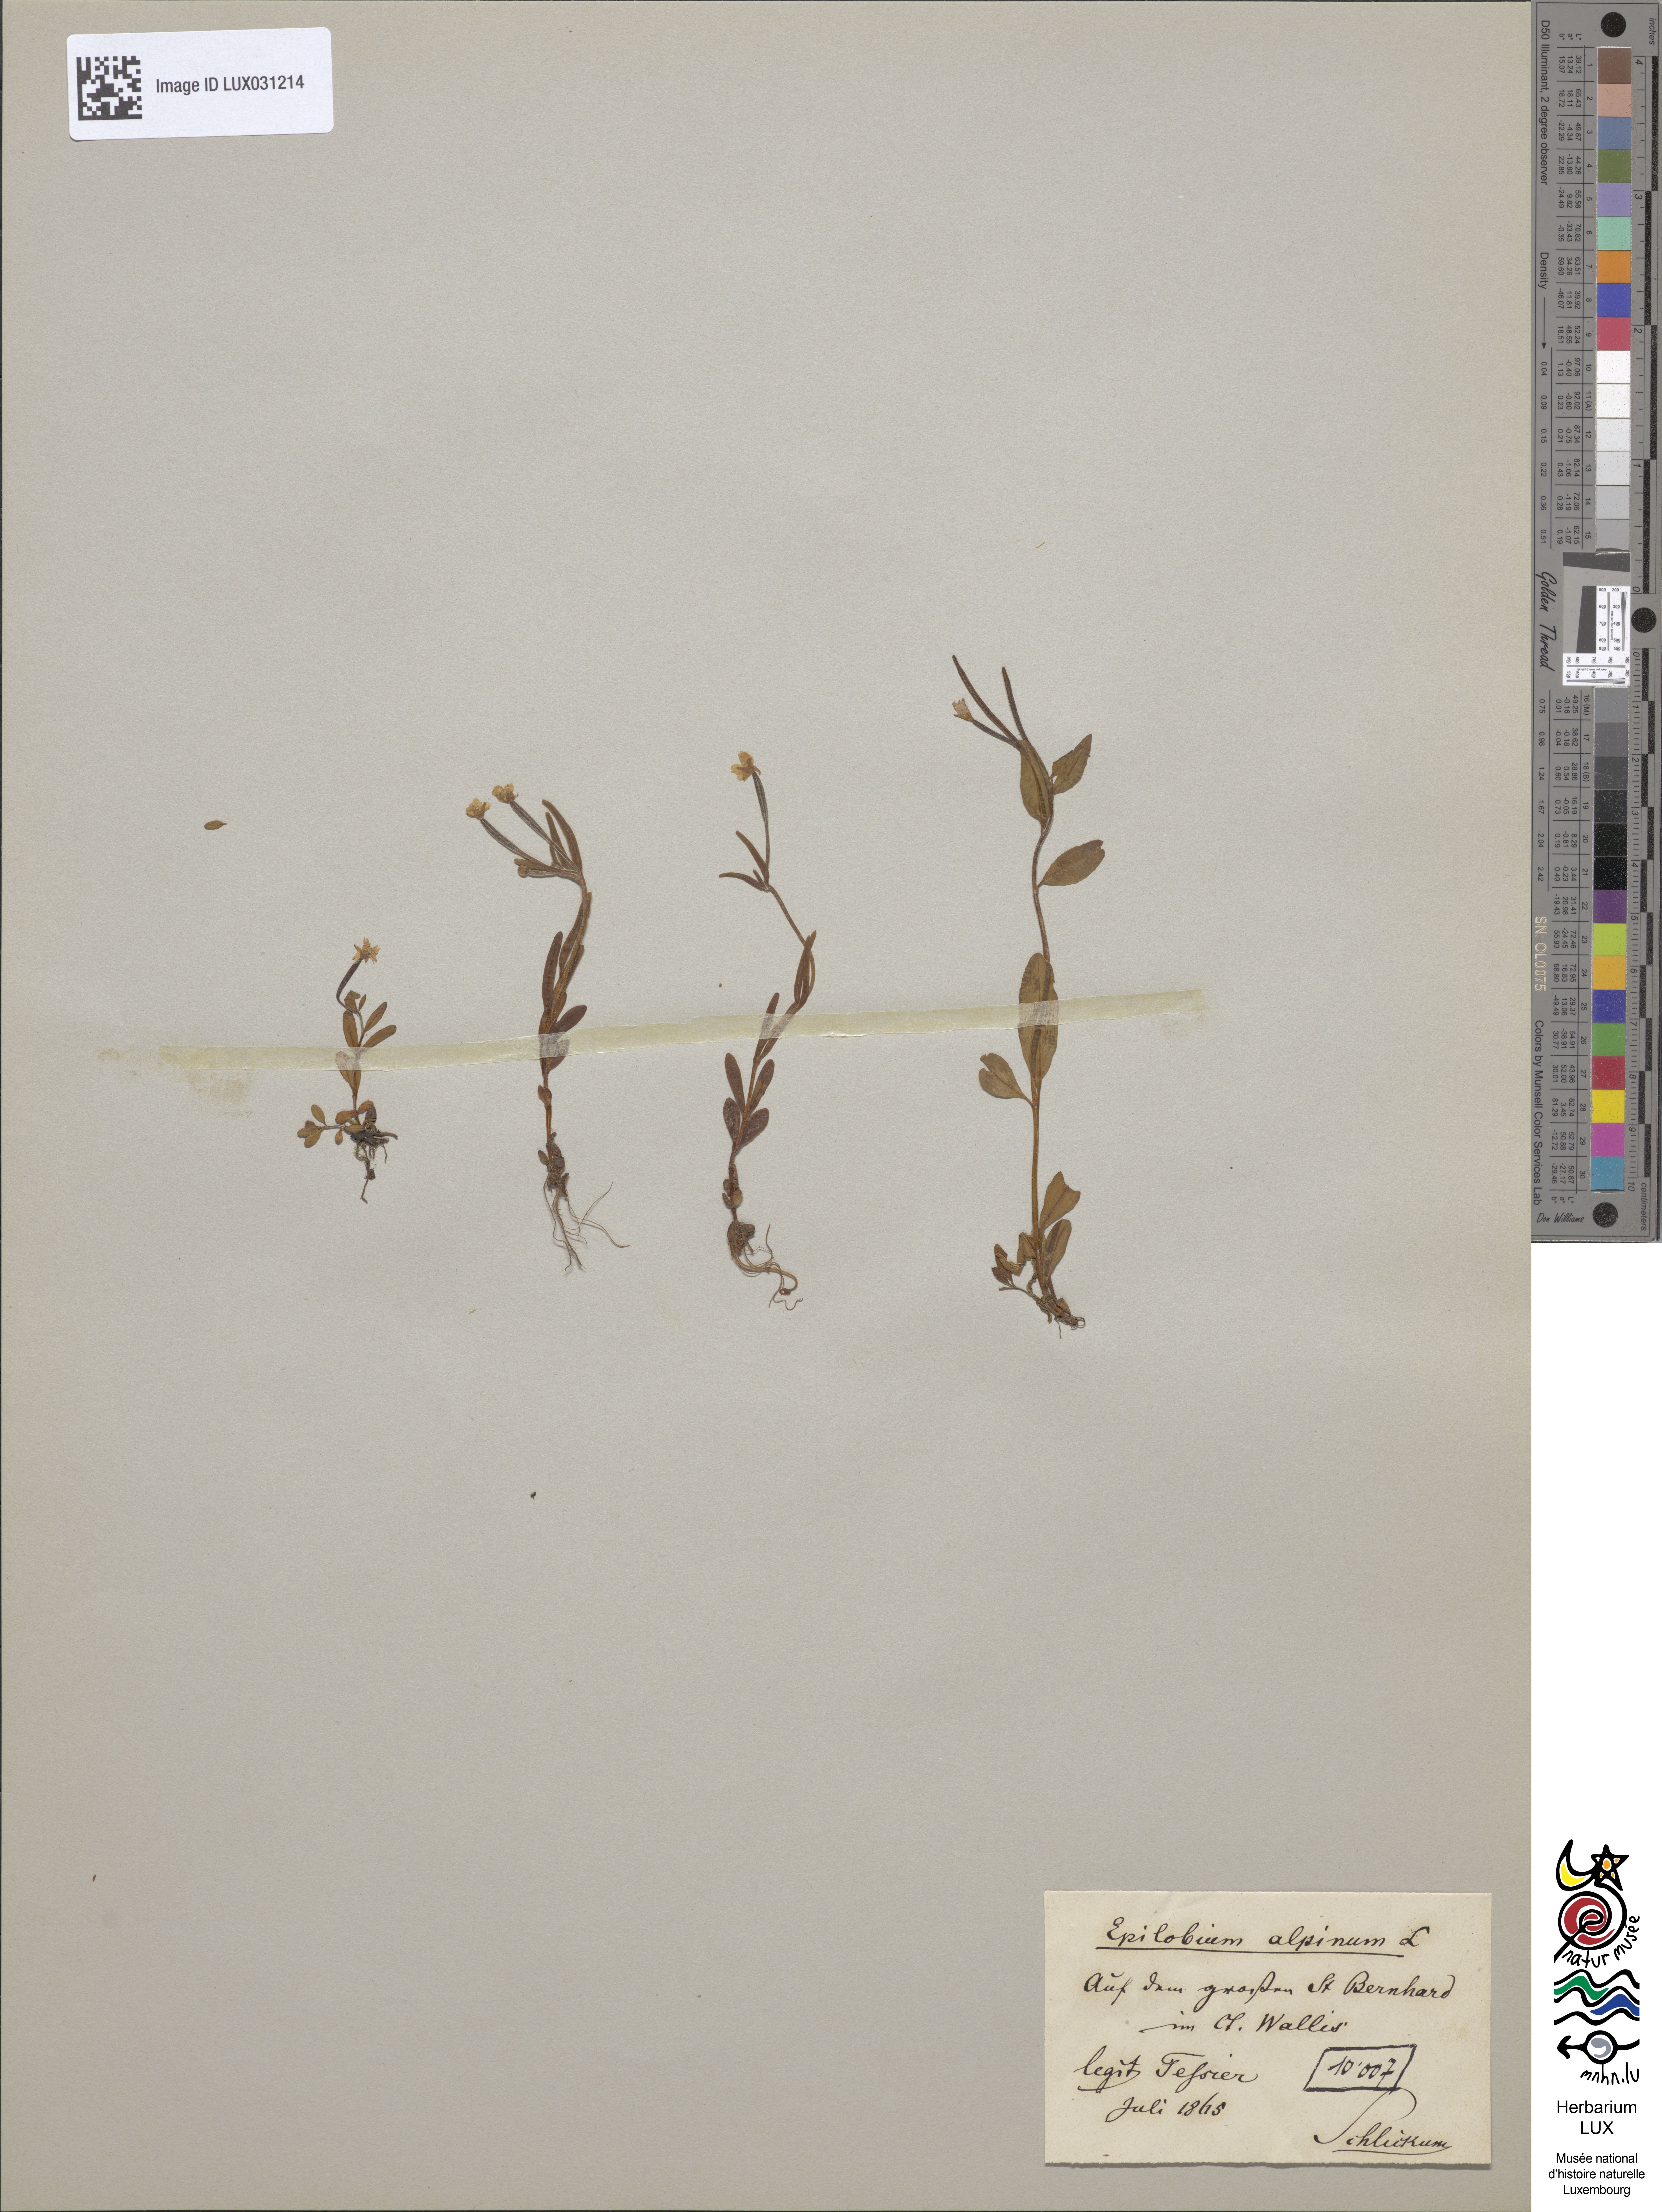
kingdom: Plantae
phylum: Tracheophyta
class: Magnoliopsida
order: Myrtales
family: Onagraceae
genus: Epilobium
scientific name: Epilobium
